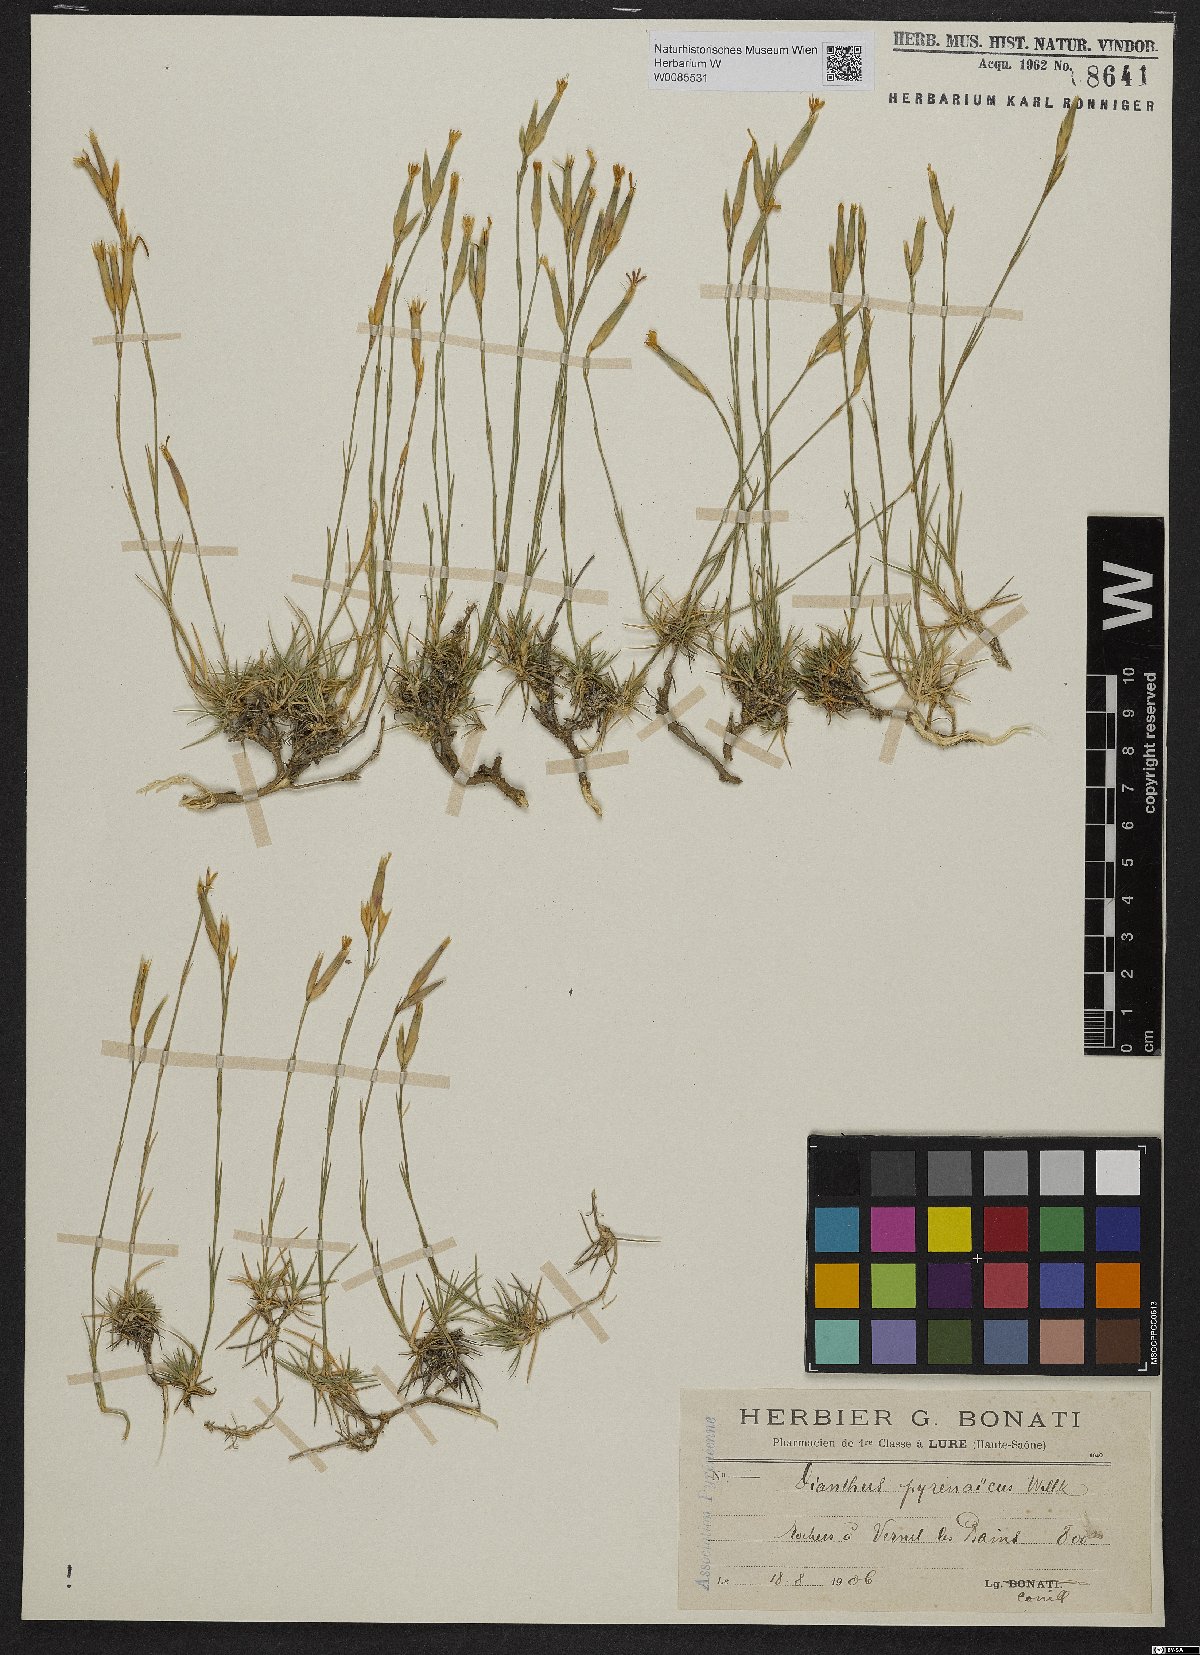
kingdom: Plantae
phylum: Tracheophyta
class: Magnoliopsida
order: Caryophyllales
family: Caryophyllaceae
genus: Dianthus
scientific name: Dianthus pyrenaicus
